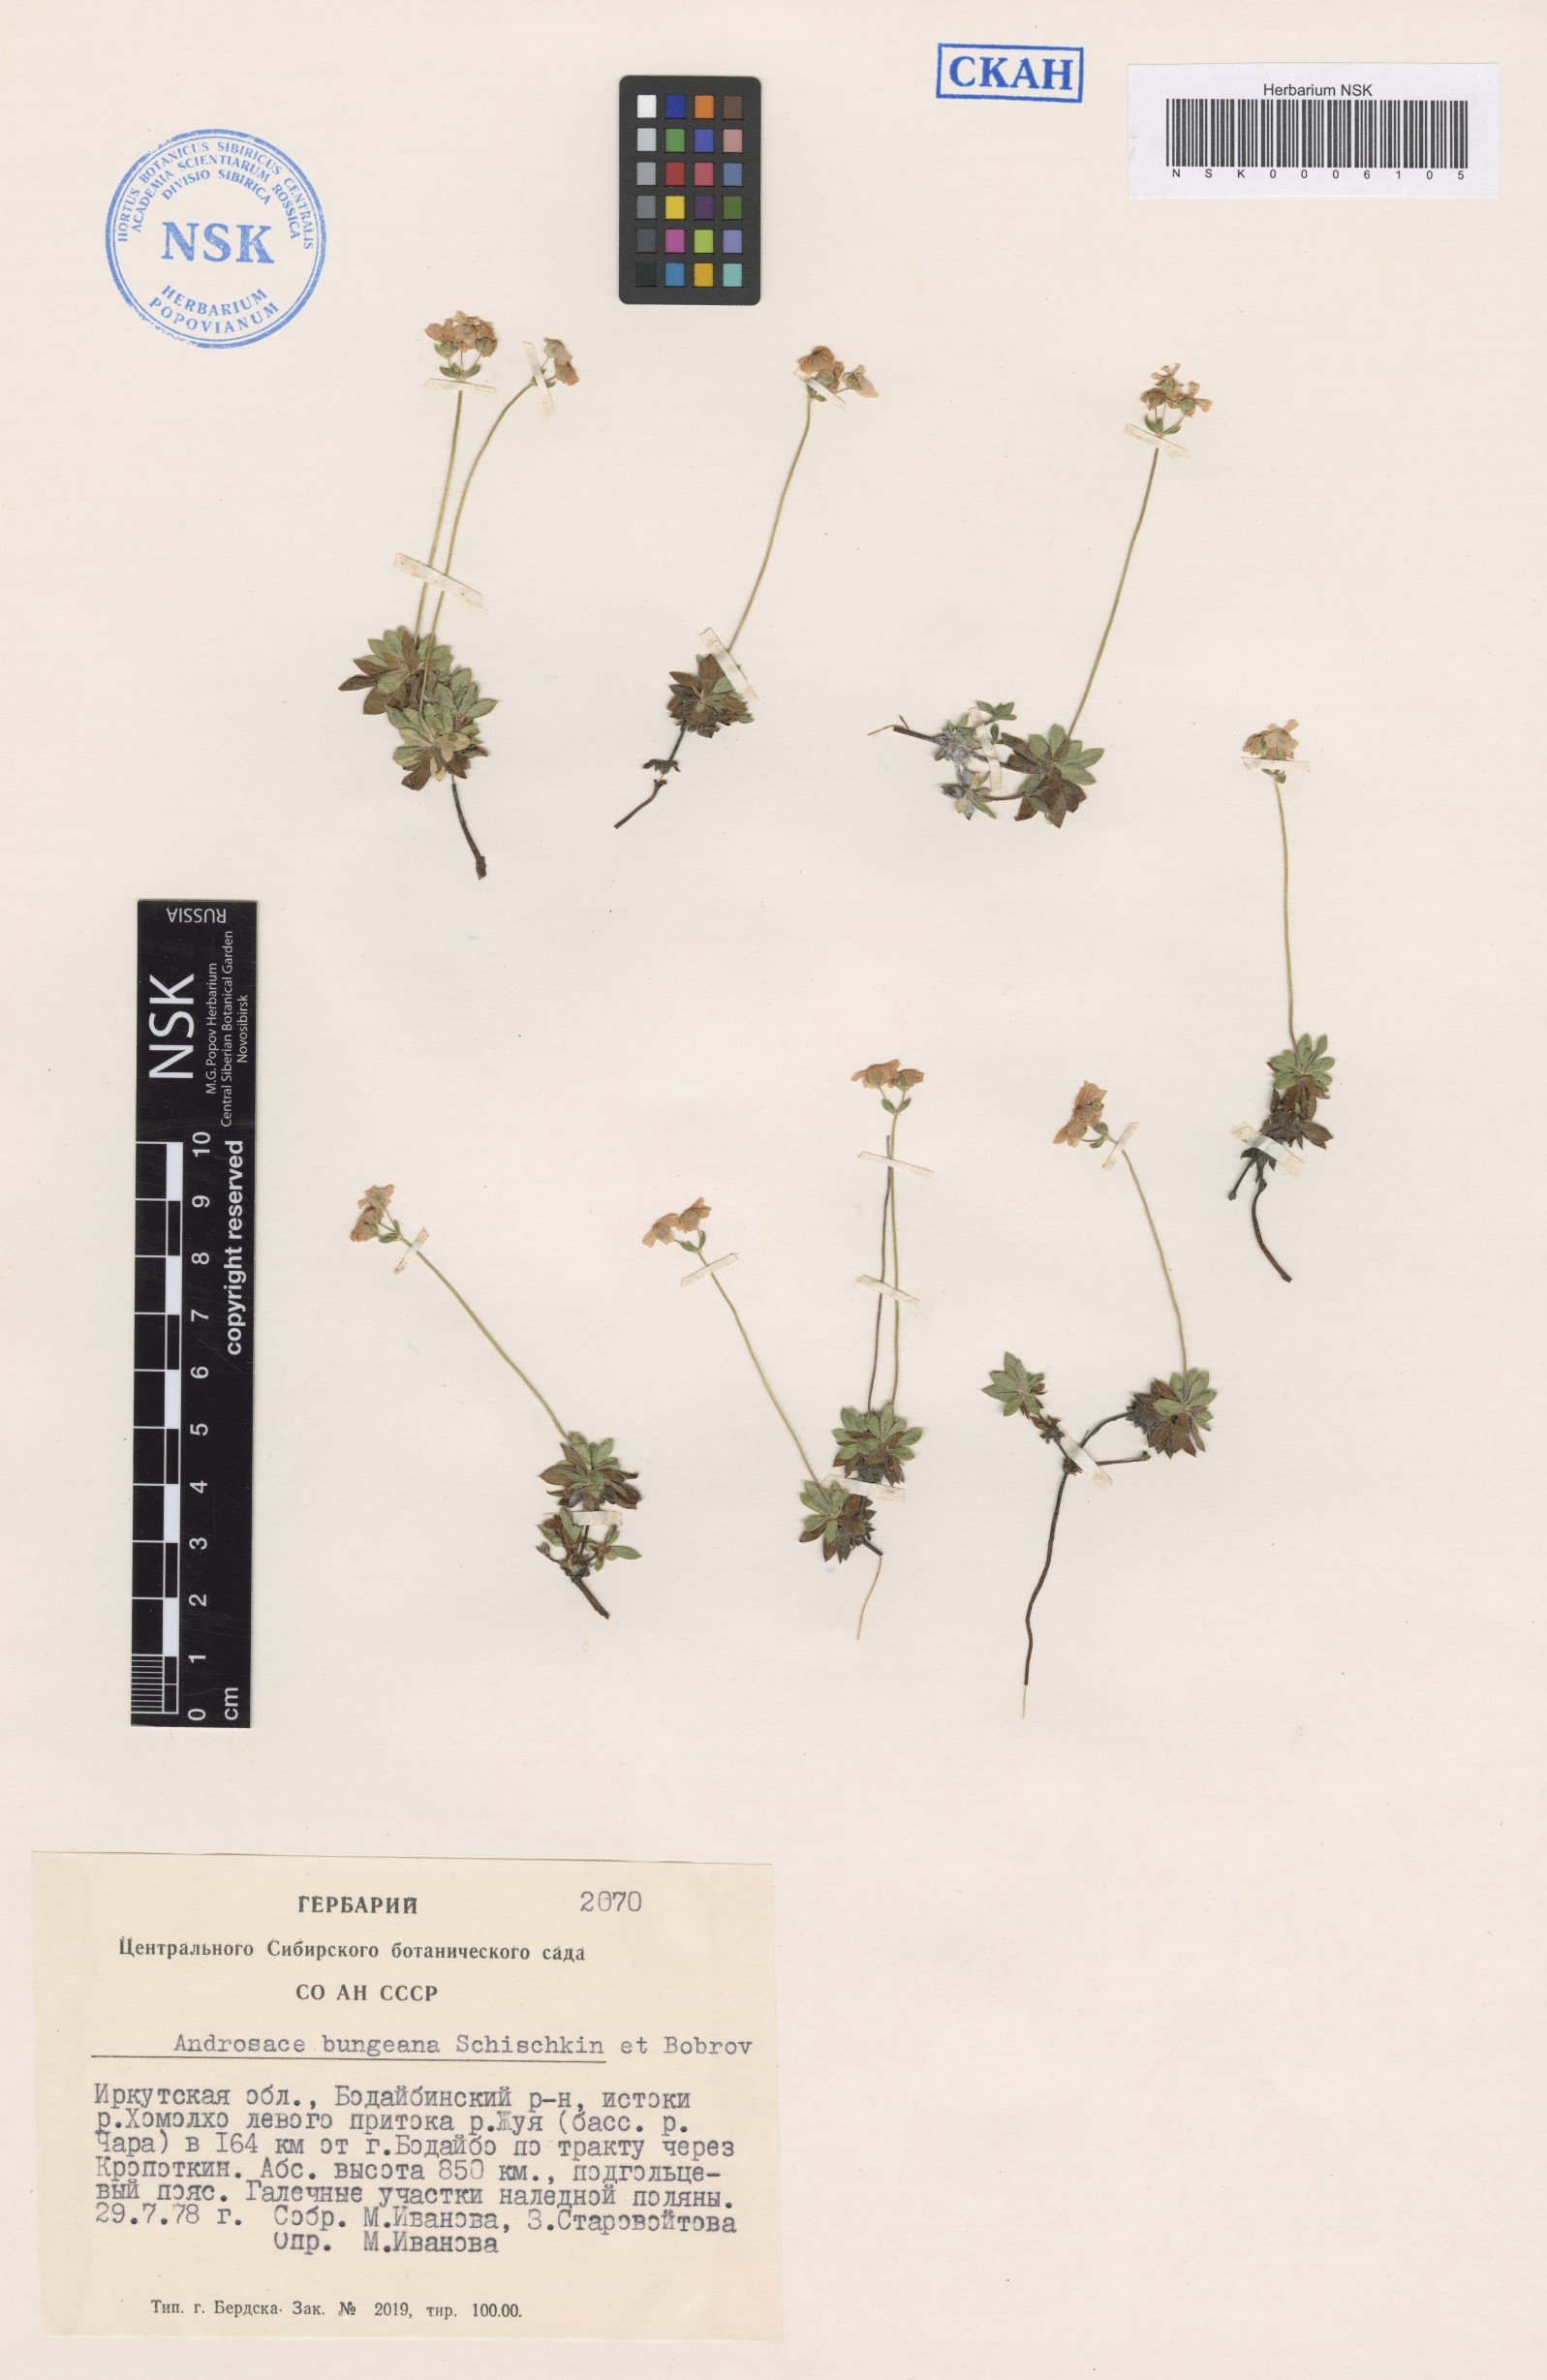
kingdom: Plantae
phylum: Tracheophyta
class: Magnoliopsida
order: Ericales
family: Primulaceae
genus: Androsace
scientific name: Androsace bungeana
